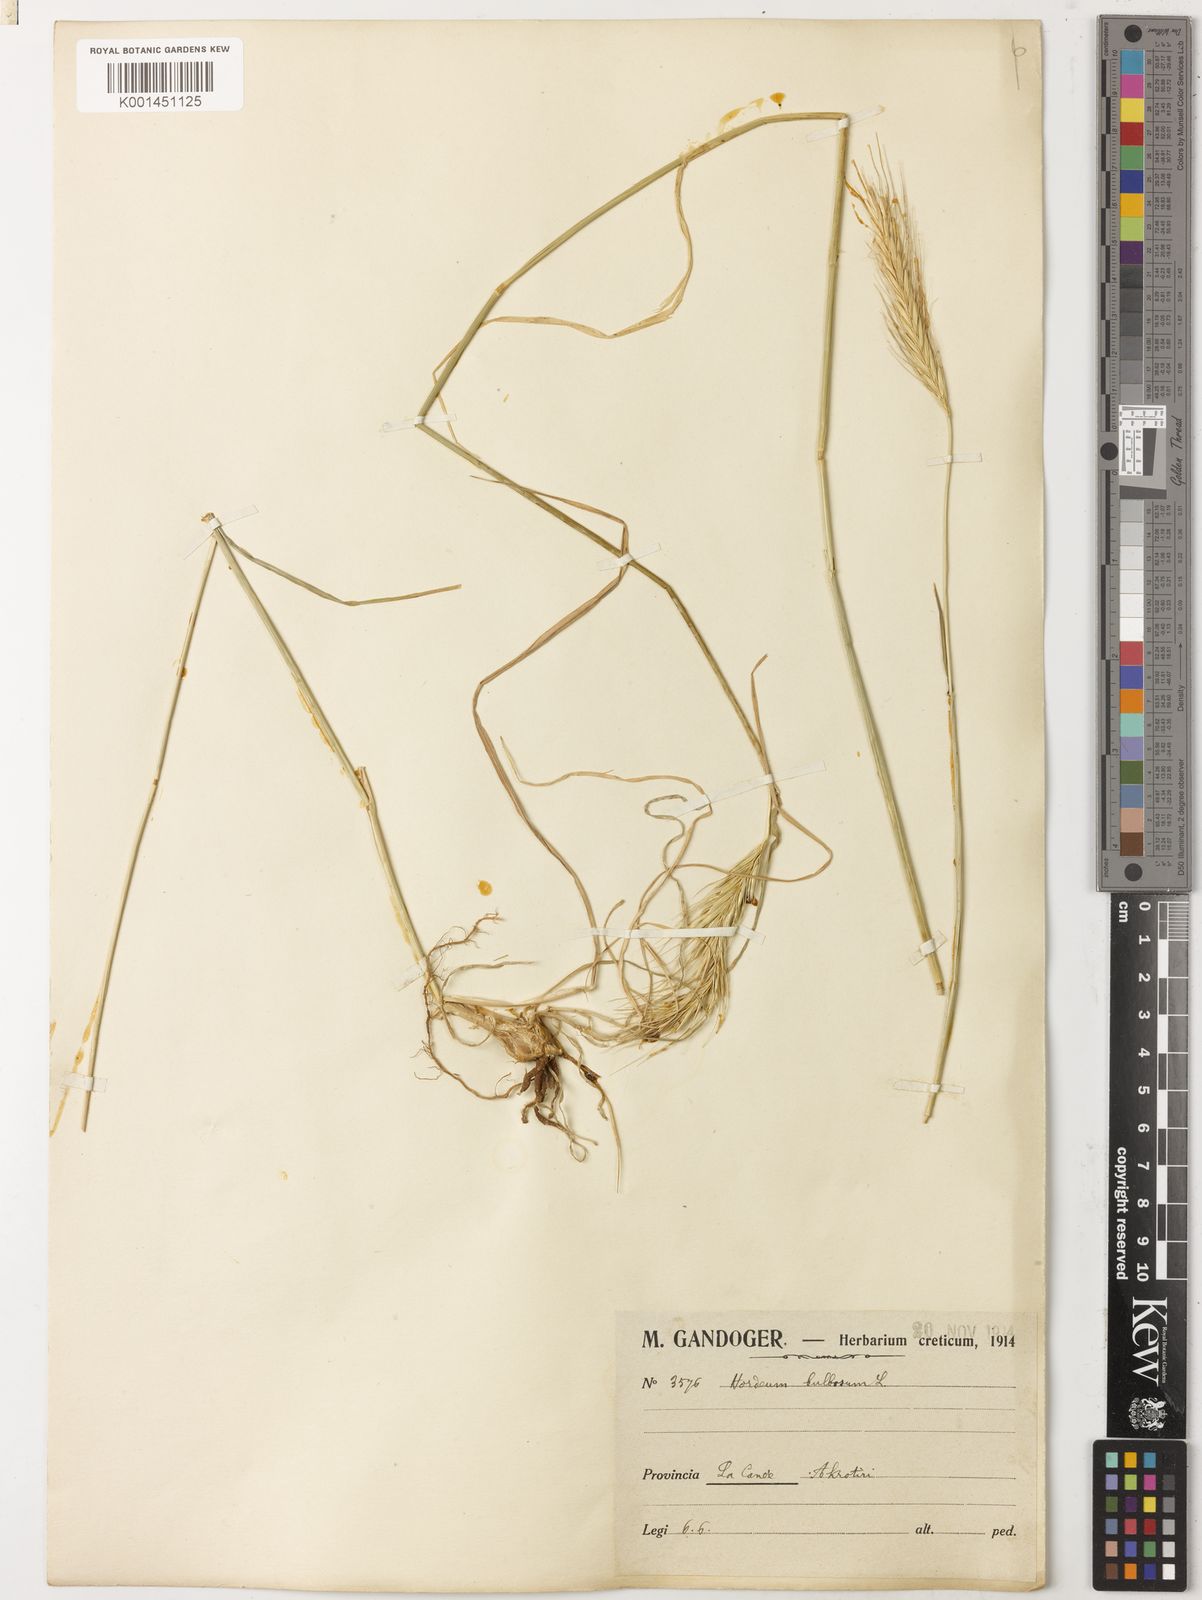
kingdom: Plantae
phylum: Tracheophyta
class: Liliopsida
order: Poales
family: Poaceae
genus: Hordeum
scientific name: Hordeum bulbosum
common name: Bulbous barley
